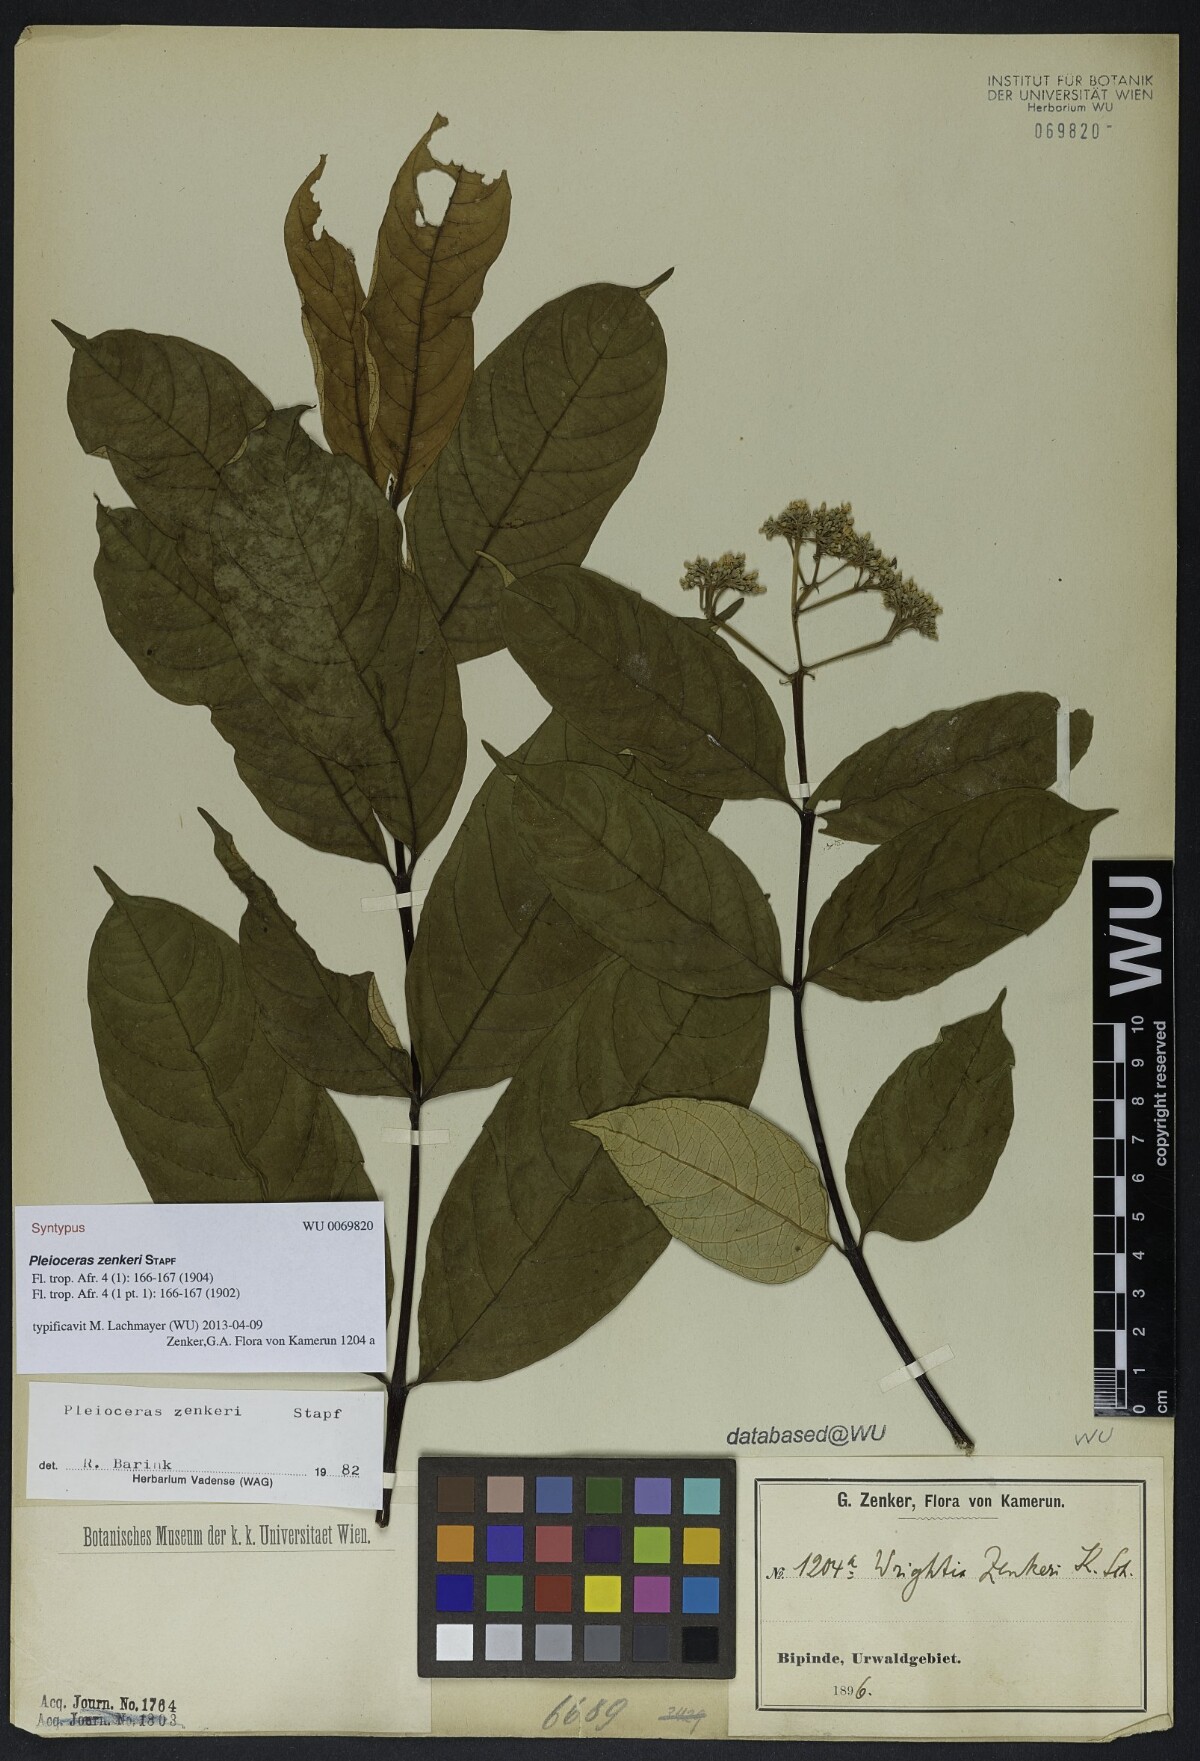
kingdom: Plantae
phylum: Tracheophyta
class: Magnoliopsida
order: Gentianales
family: Apocynaceae
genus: Pleioceras
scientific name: Pleioceras zenkeri
